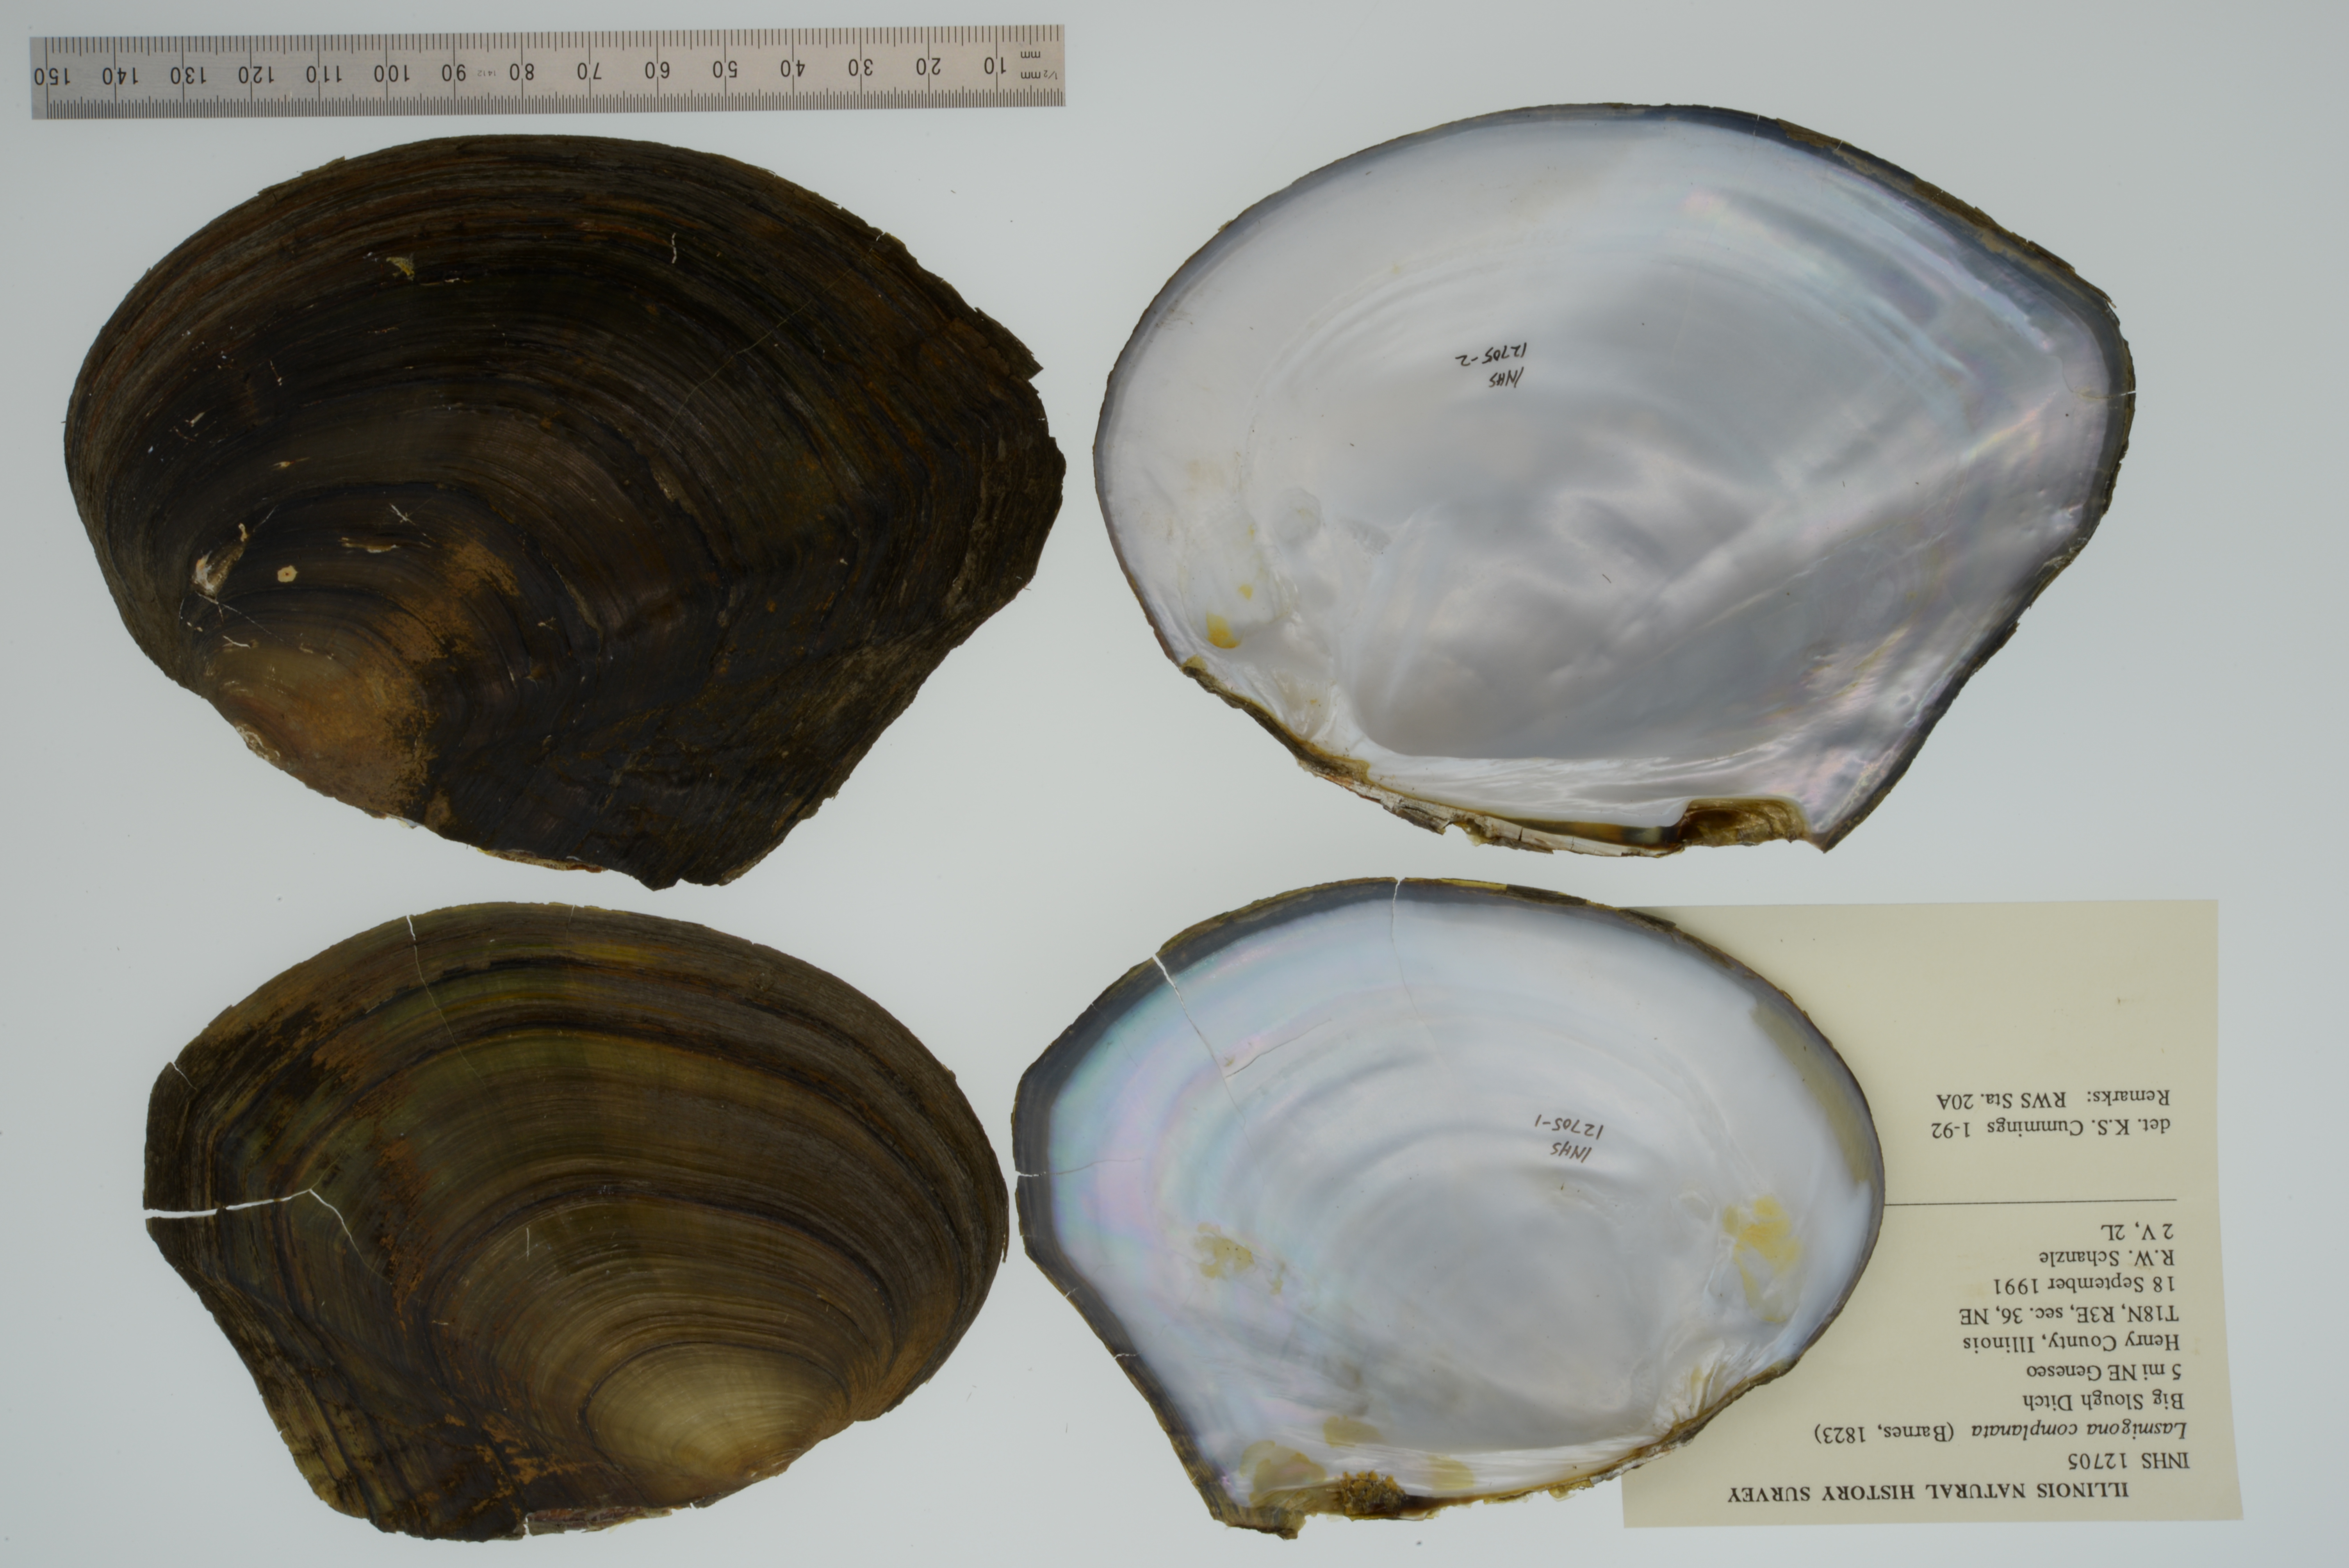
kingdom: Animalia
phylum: Mollusca
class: Bivalvia
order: Unionida
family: Unionidae
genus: Lasmigona
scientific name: Lasmigona complanata
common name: White heelsplitter
